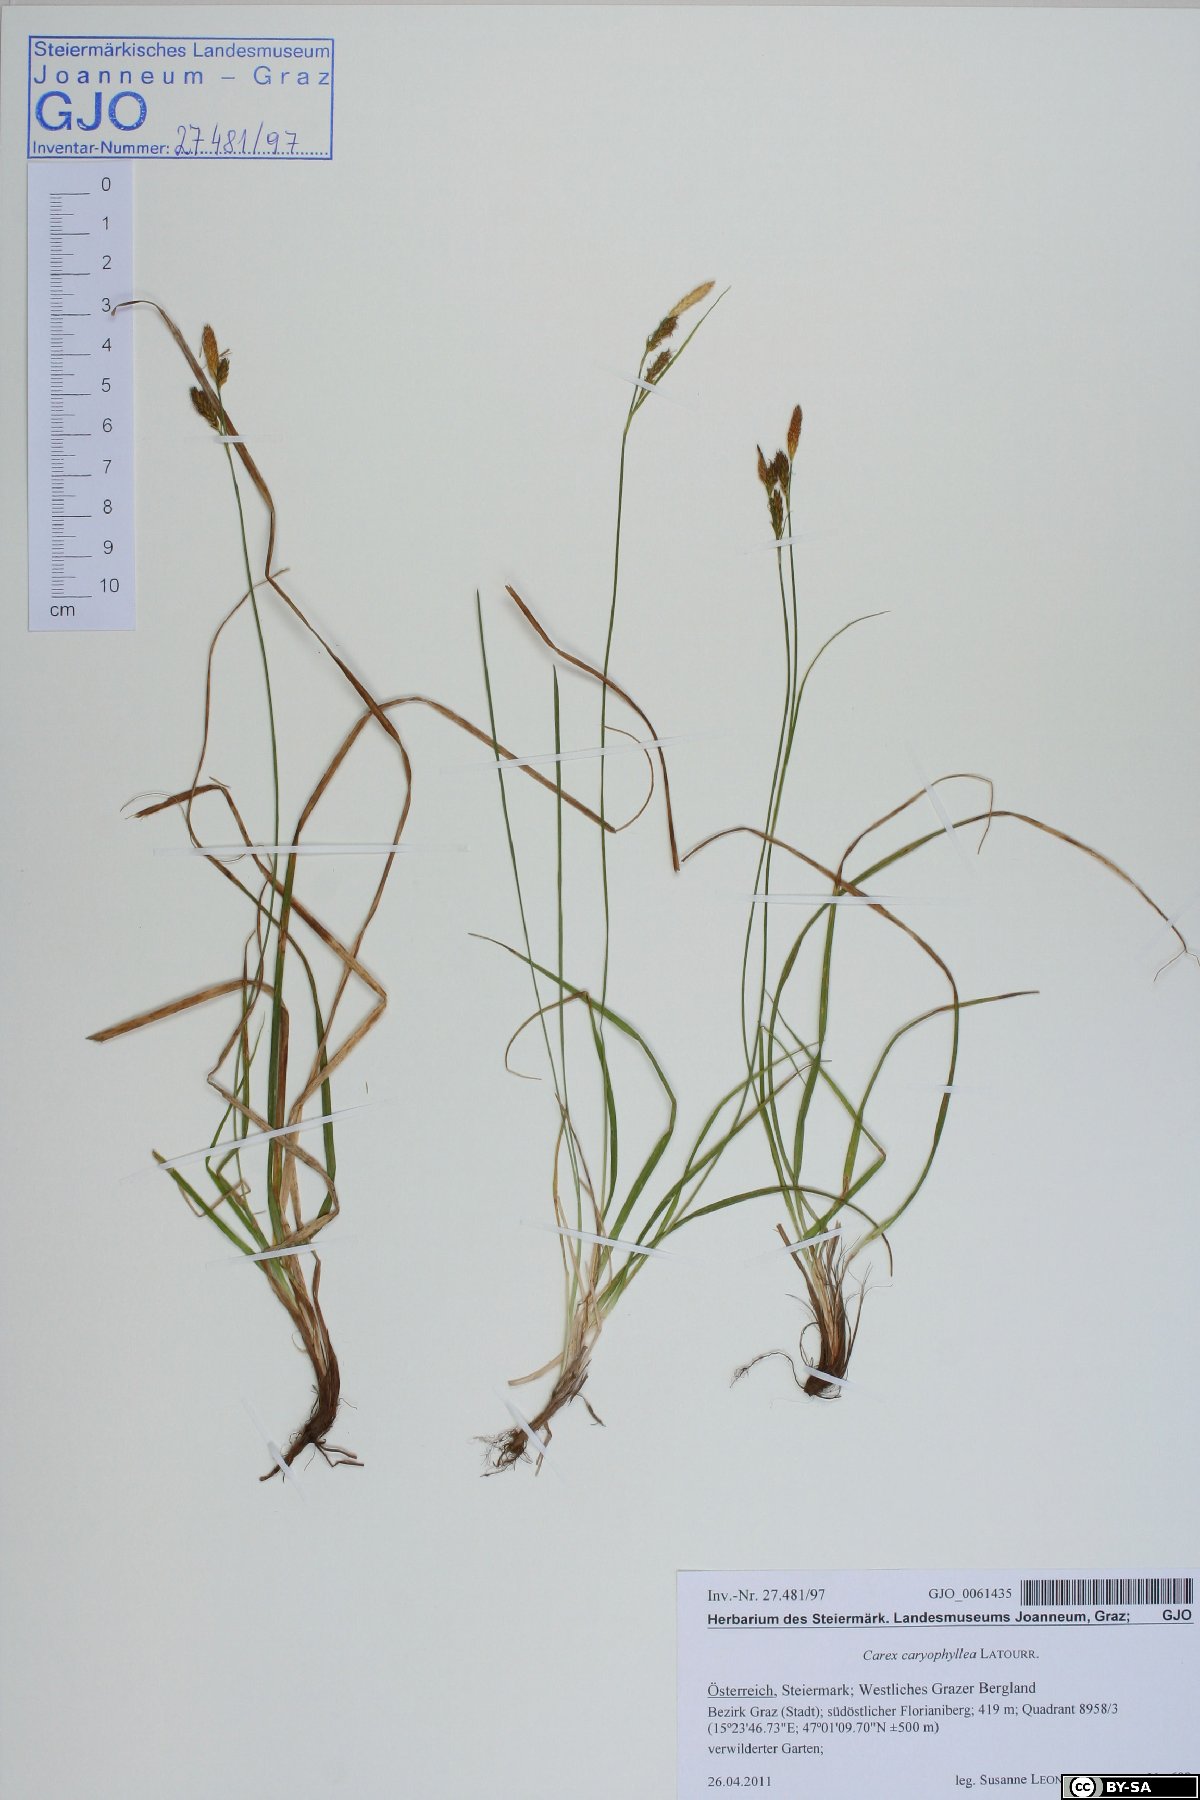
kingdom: Plantae
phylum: Tracheophyta
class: Liliopsida
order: Poales
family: Cyperaceae
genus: Carex
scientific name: Carex caryophyllea
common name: Spring sedge
